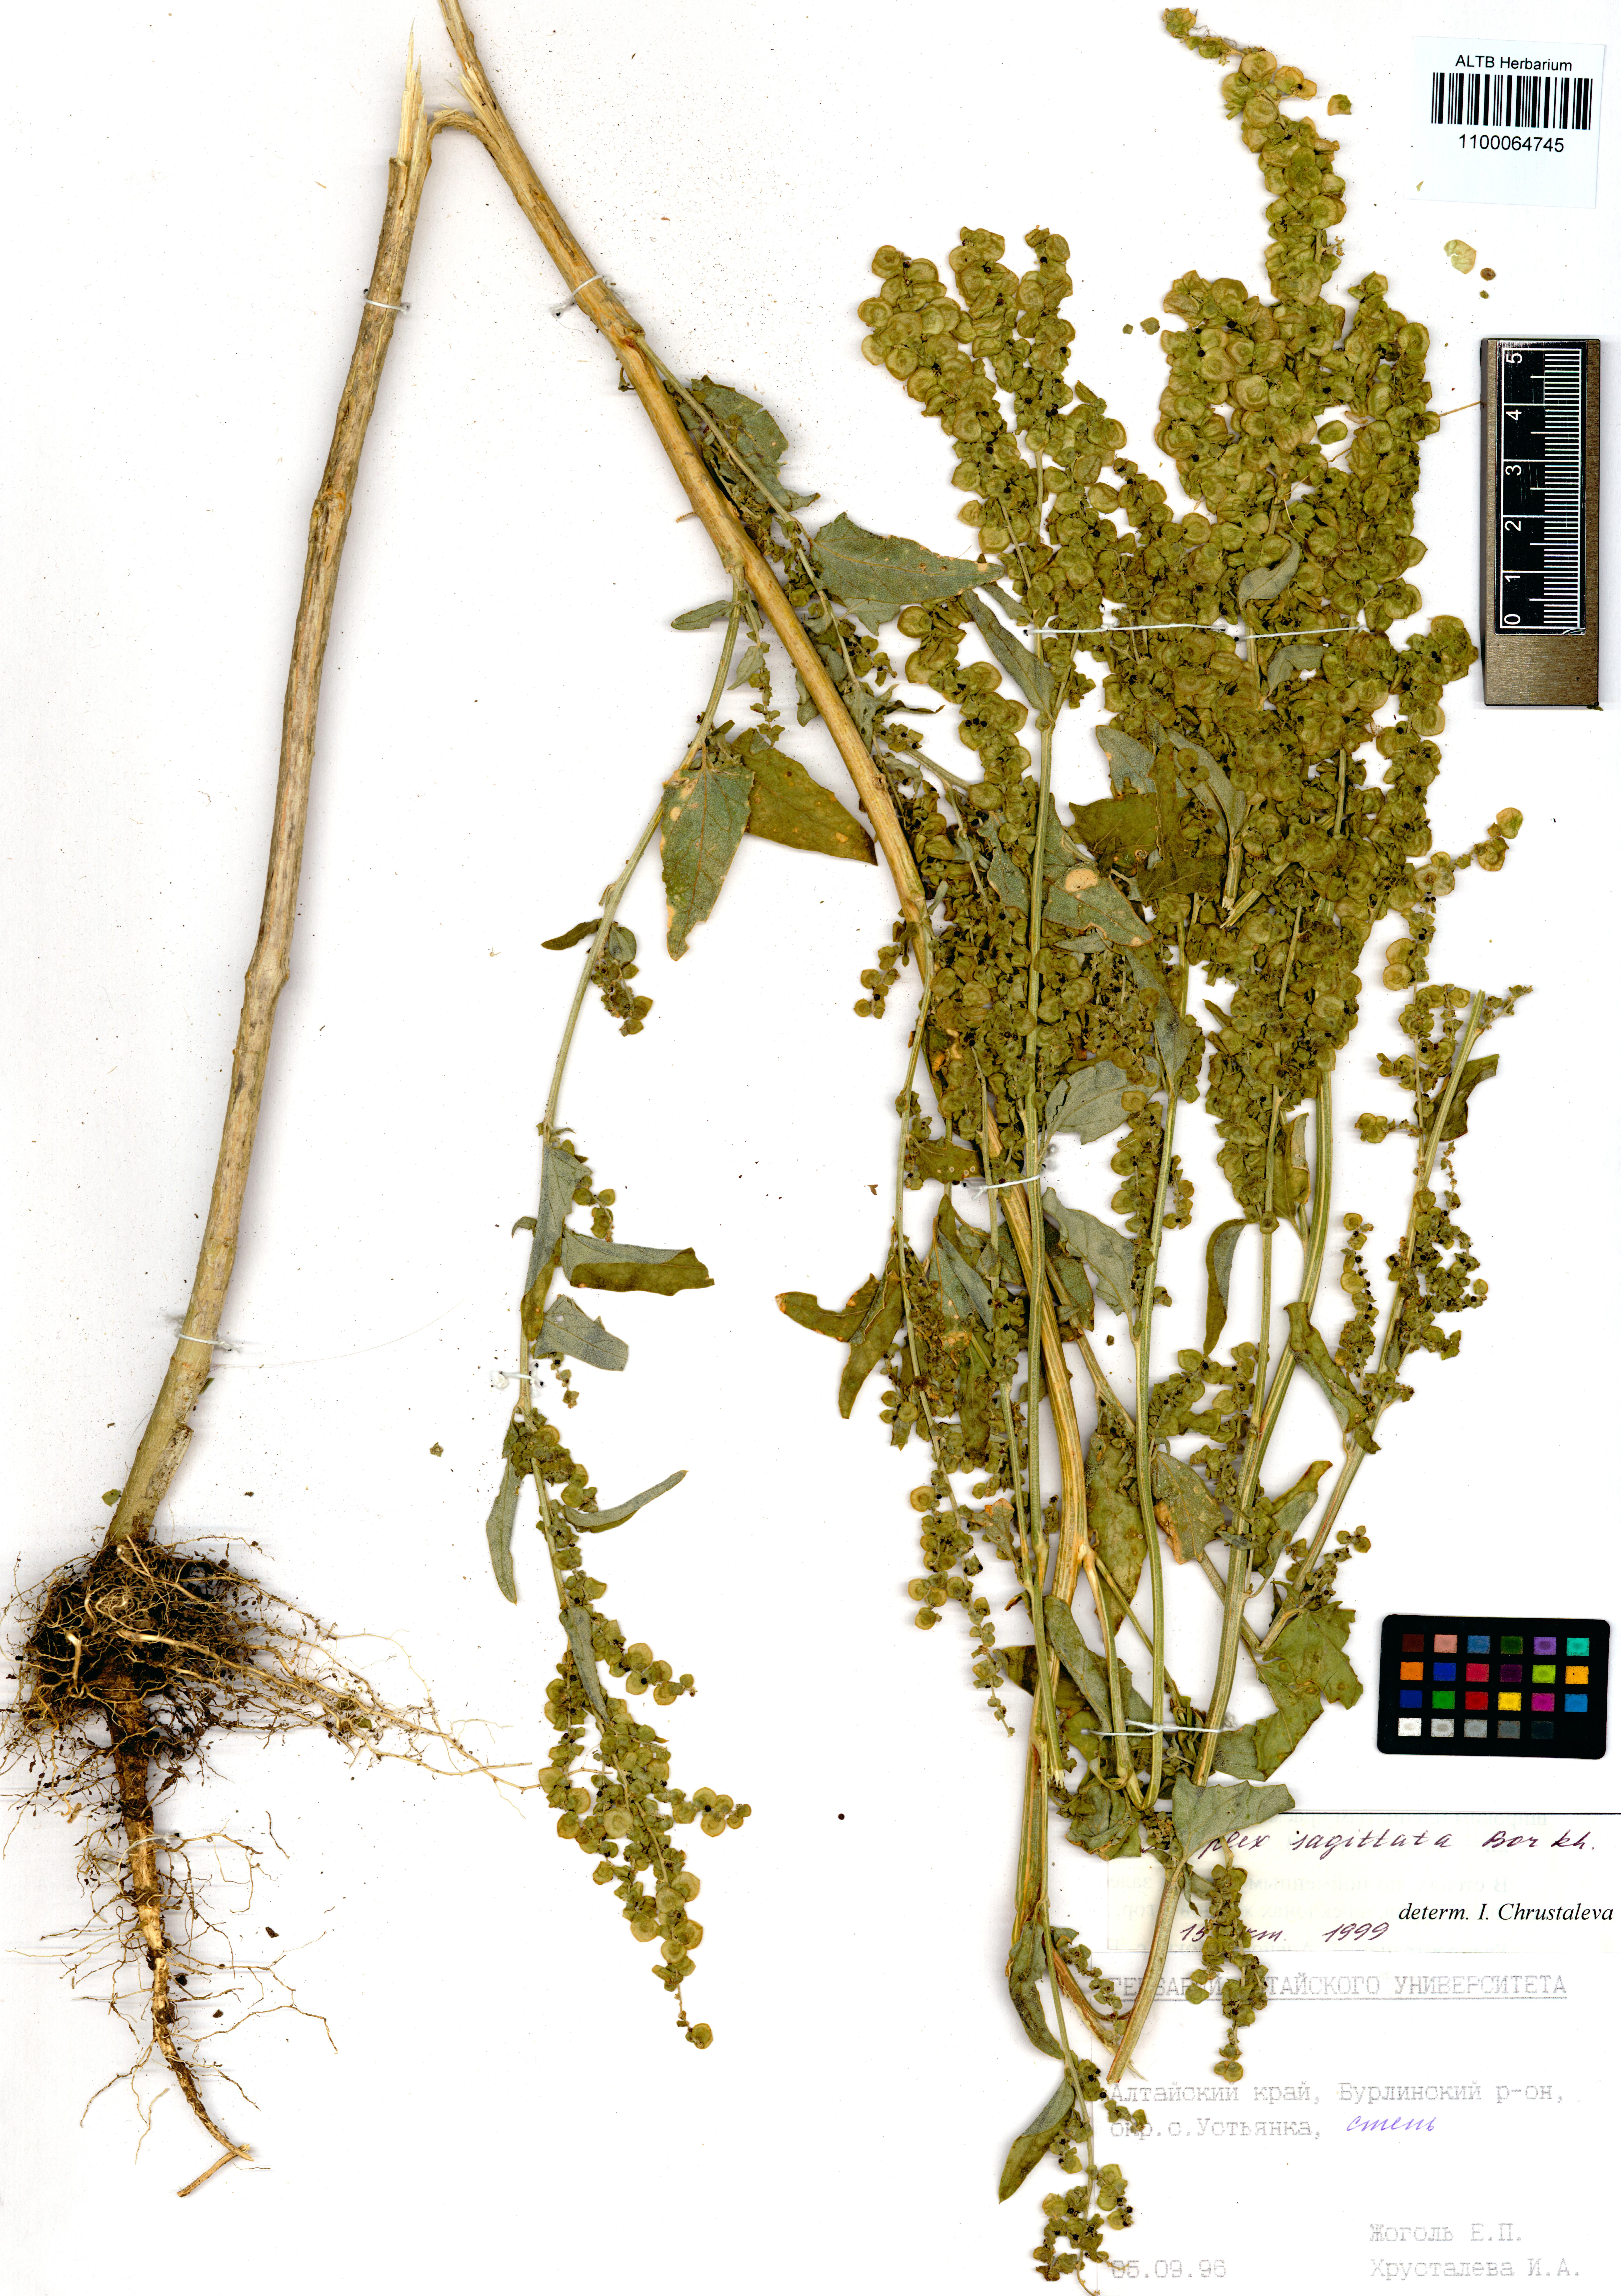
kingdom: Plantae
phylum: Tracheophyta
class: Magnoliopsida
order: Caryophyllales
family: Amaranthaceae
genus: Atriplex
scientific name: Atriplex sagittata
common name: Purple orache
